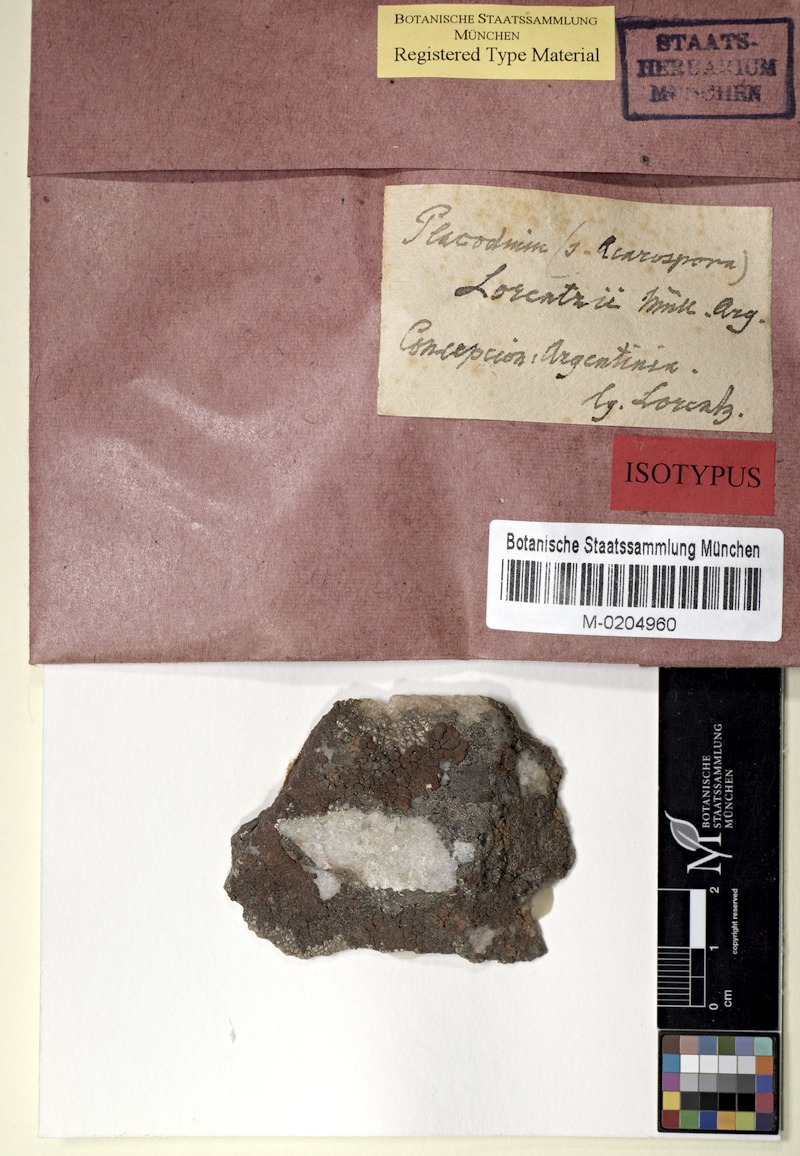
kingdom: Fungi
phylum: Ascomycota
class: Lecanoromycetes
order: Acarosporales
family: Acarosporaceae
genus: Acarospora
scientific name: Acarospora lorentzii
